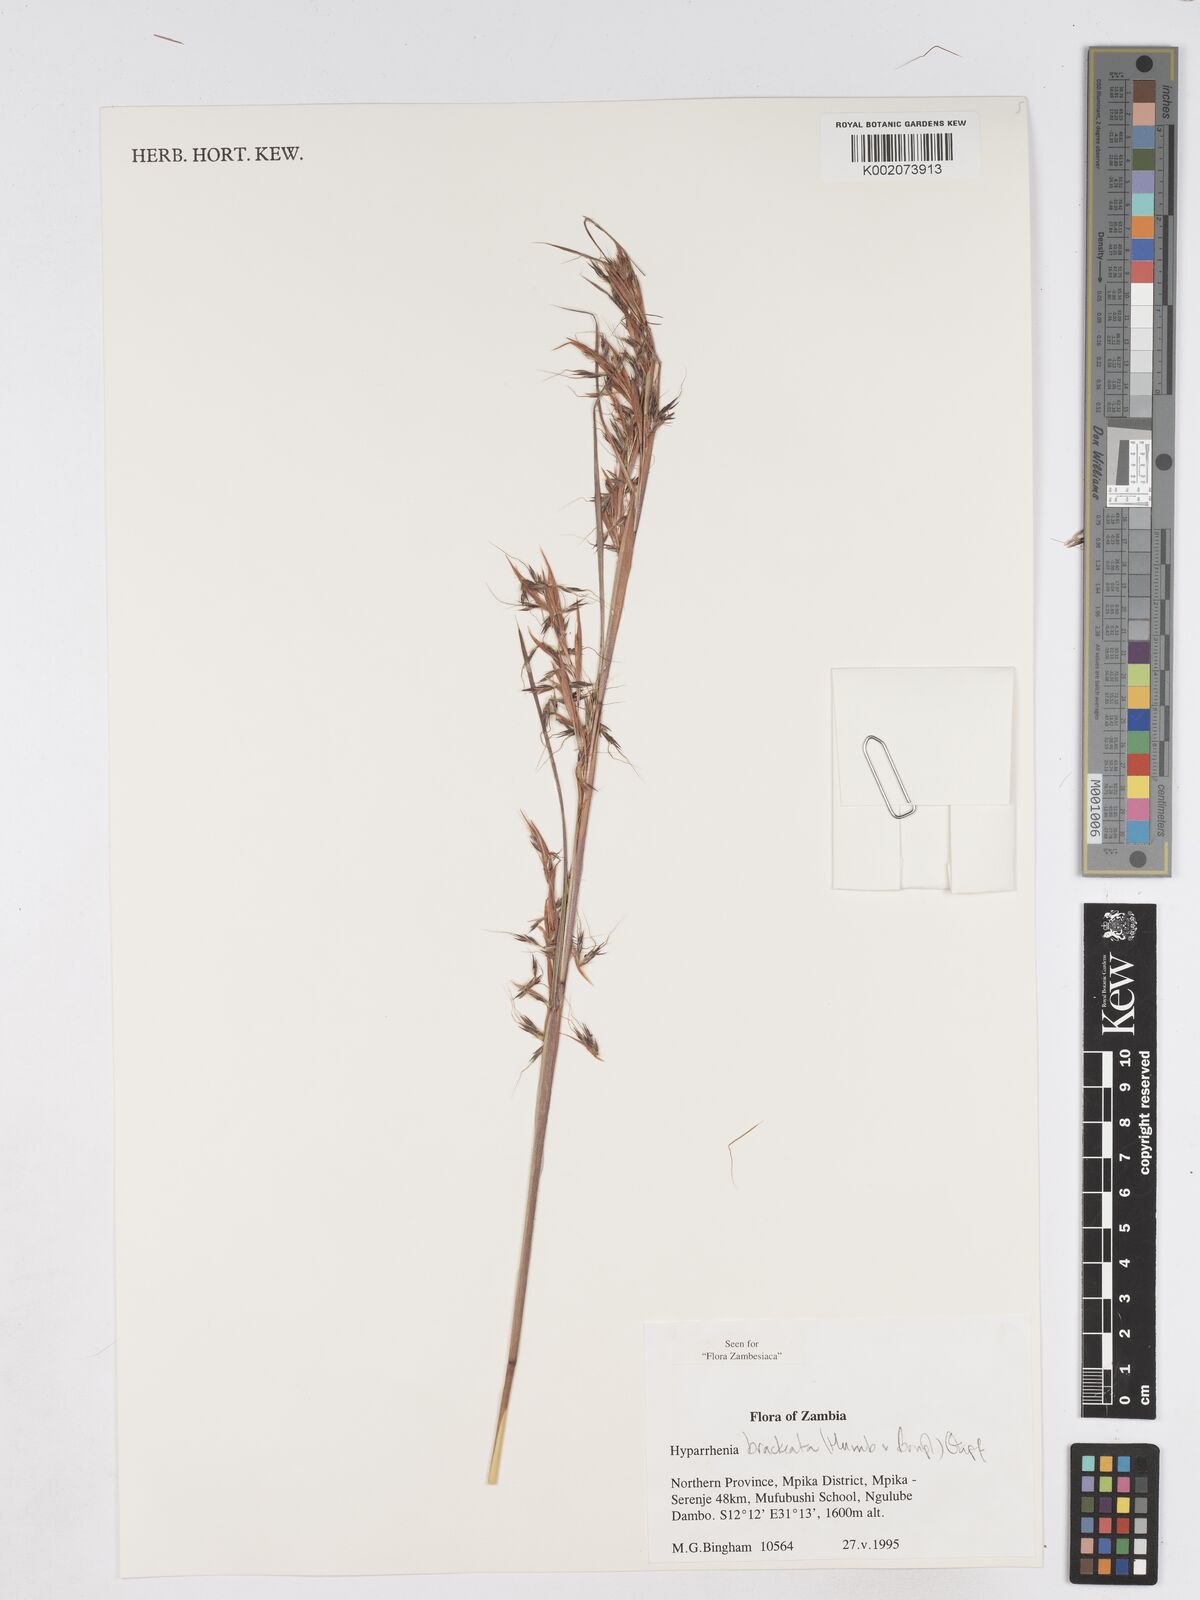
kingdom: Plantae
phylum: Tracheophyta
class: Liliopsida
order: Poales
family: Poaceae
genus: Hyparrhenia
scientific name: Hyparrhenia bracteata
